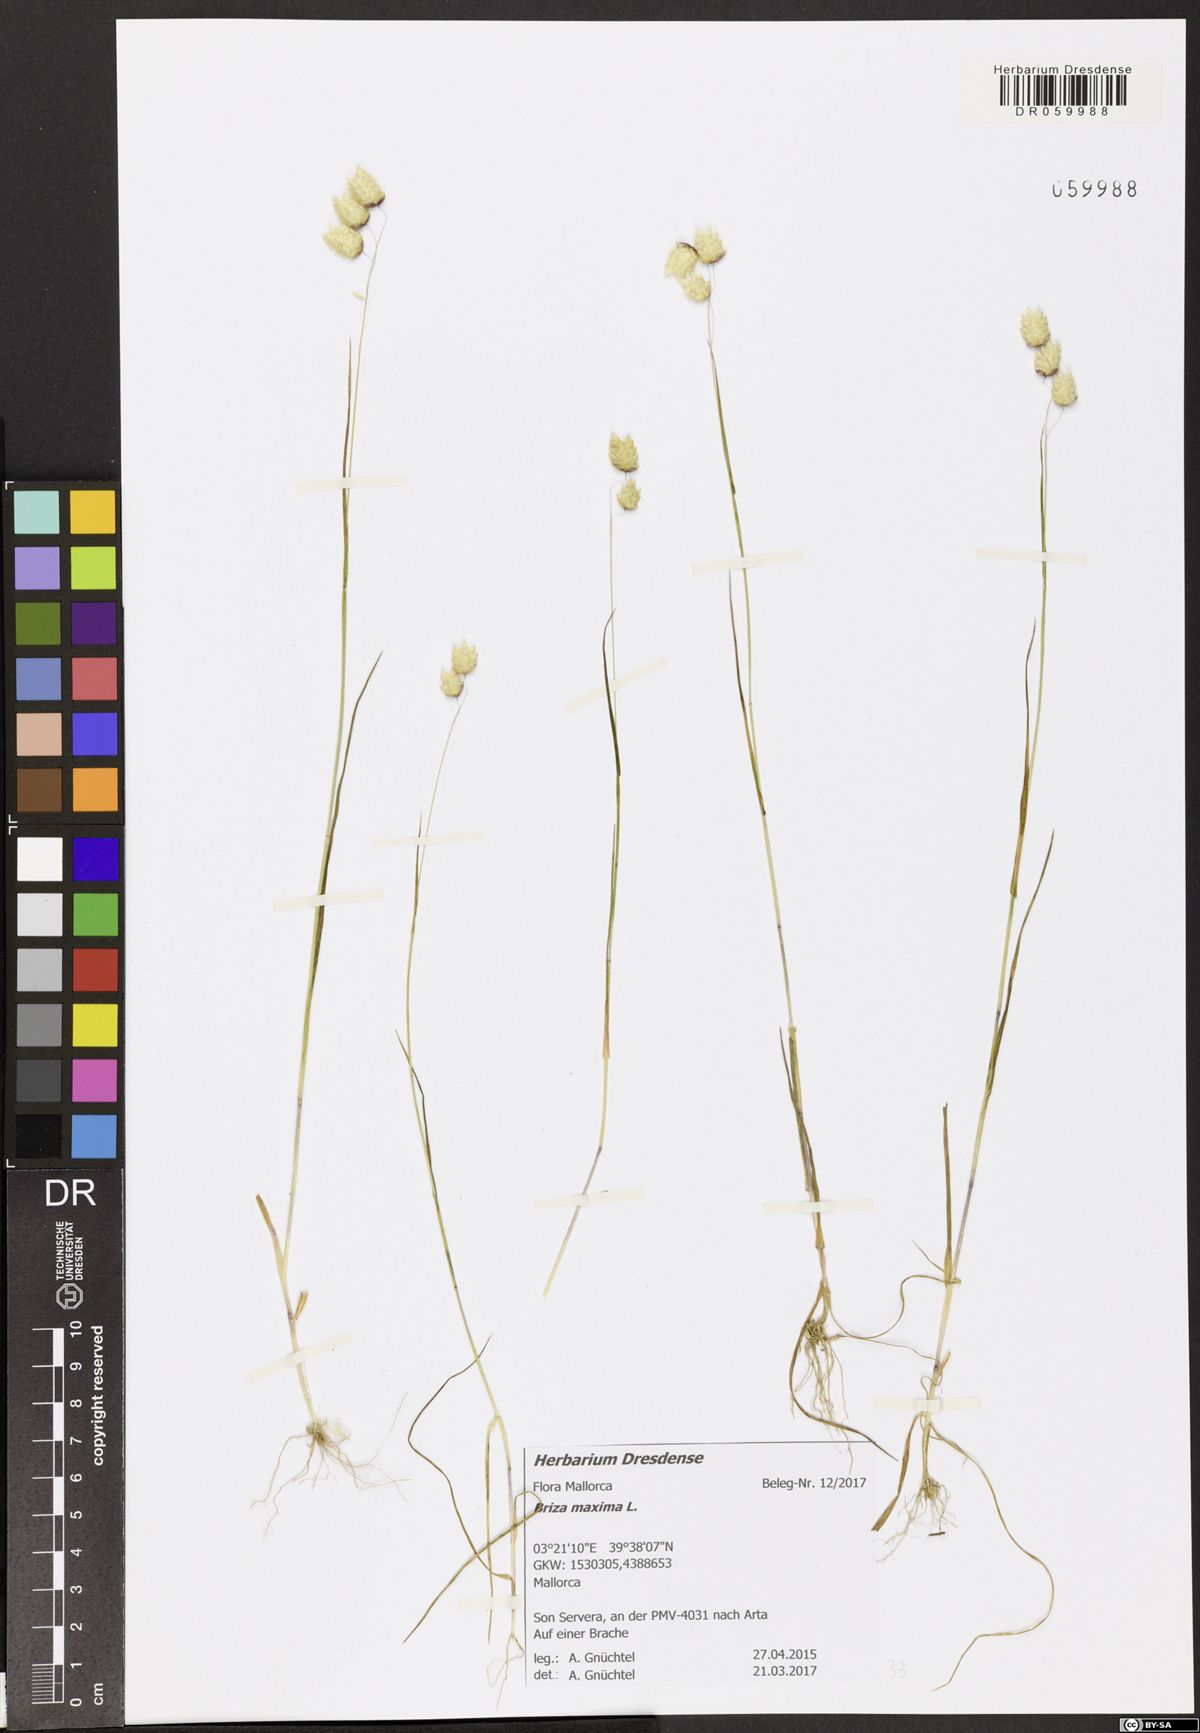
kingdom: Plantae
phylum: Tracheophyta
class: Liliopsida
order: Poales
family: Poaceae
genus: Briza
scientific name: Briza maxima
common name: Big quakinggrass
